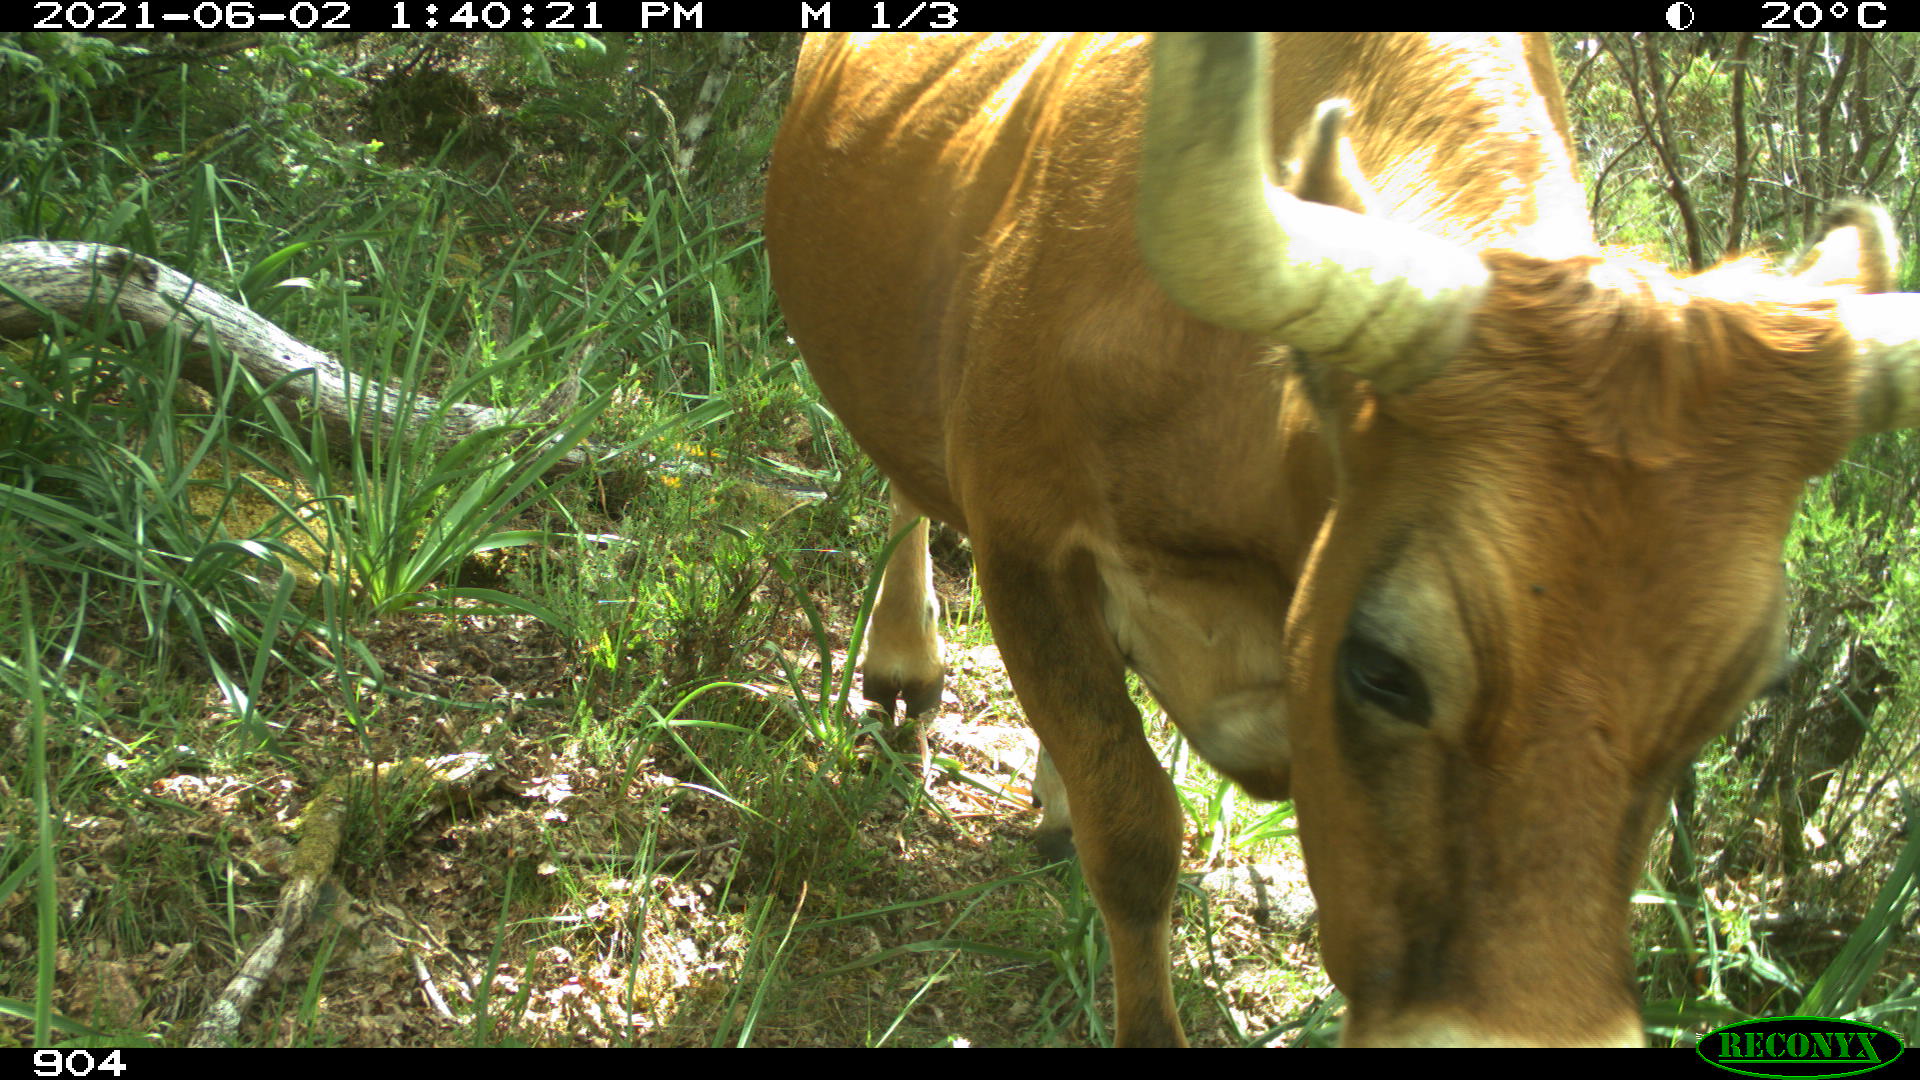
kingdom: Animalia
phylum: Chordata
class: Mammalia
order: Artiodactyla
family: Bovidae
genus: Bos
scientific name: Bos taurus
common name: Domesticated cattle
